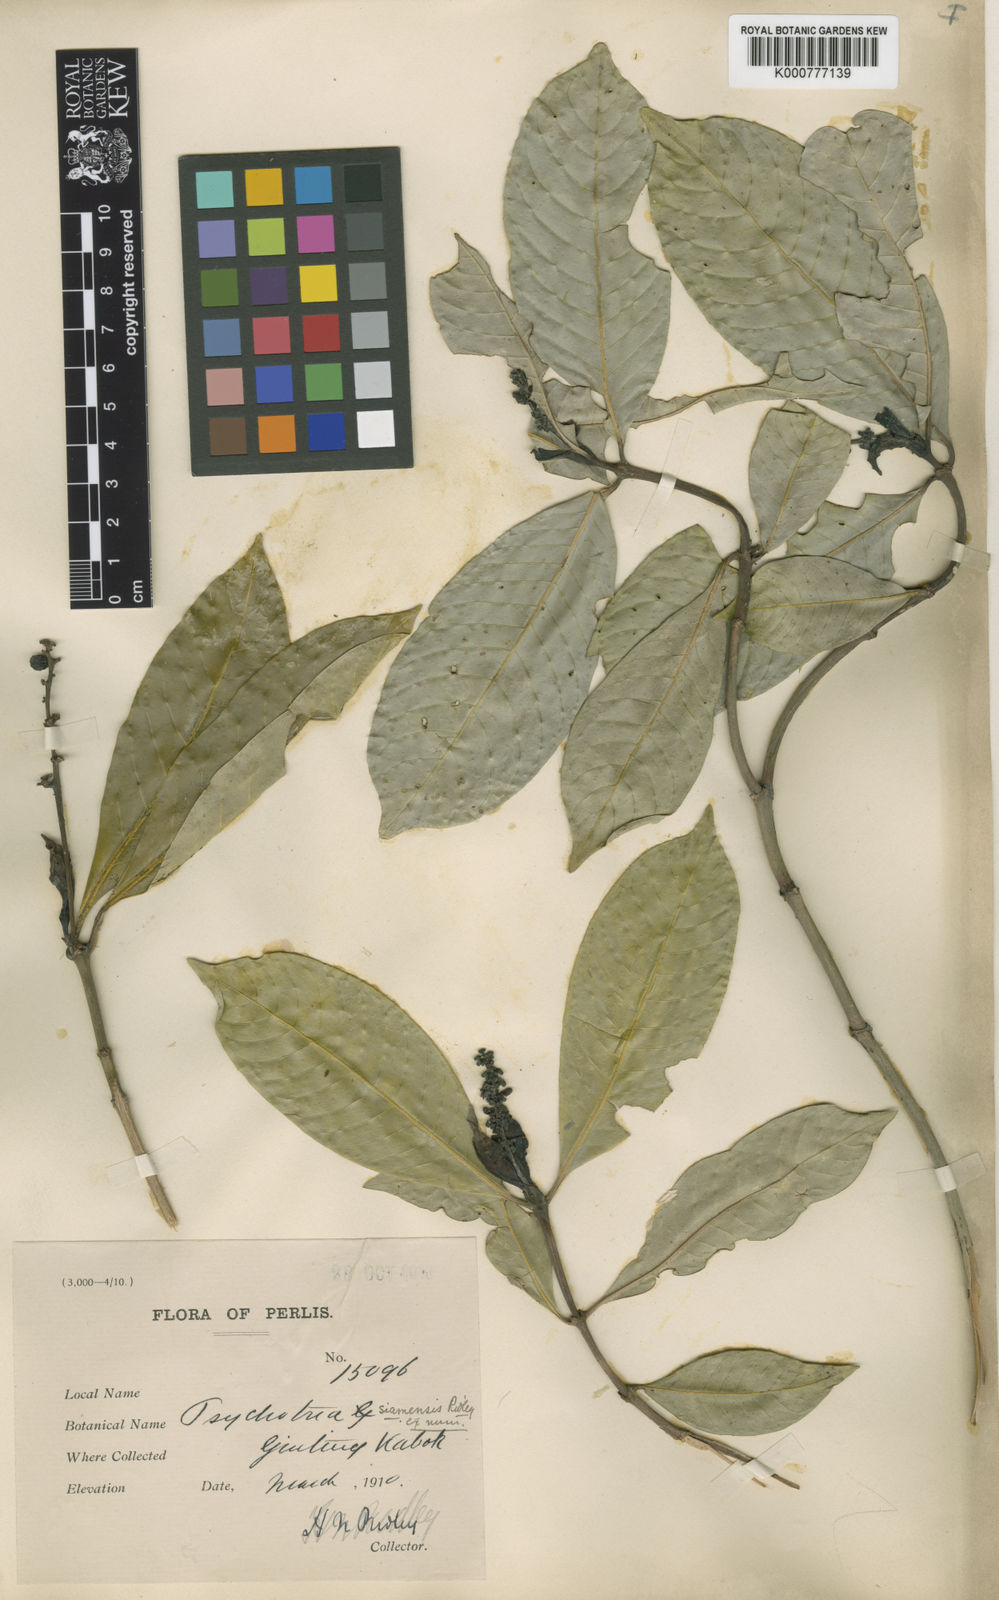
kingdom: Plantae
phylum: Tracheophyta
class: Magnoliopsida
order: Gentianales
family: Rubiaceae
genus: Psychotria
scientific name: Psychotria adenophylla
